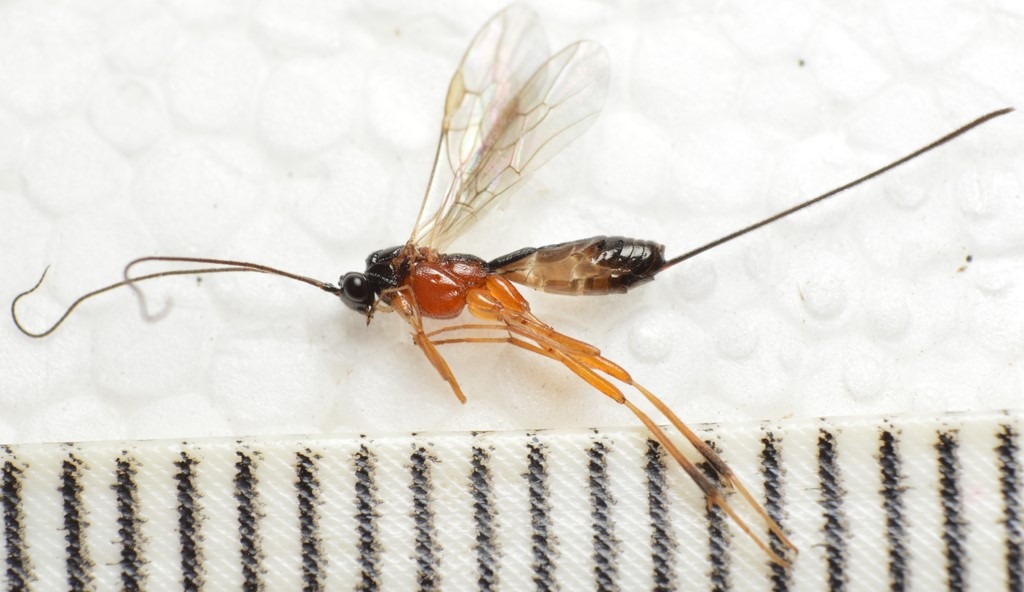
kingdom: Animalia
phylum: Arthropoda
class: Insecta
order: Hymenoptera
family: Braconidae
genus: Macrocentrus
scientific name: Macrocentrus kurnakovi
